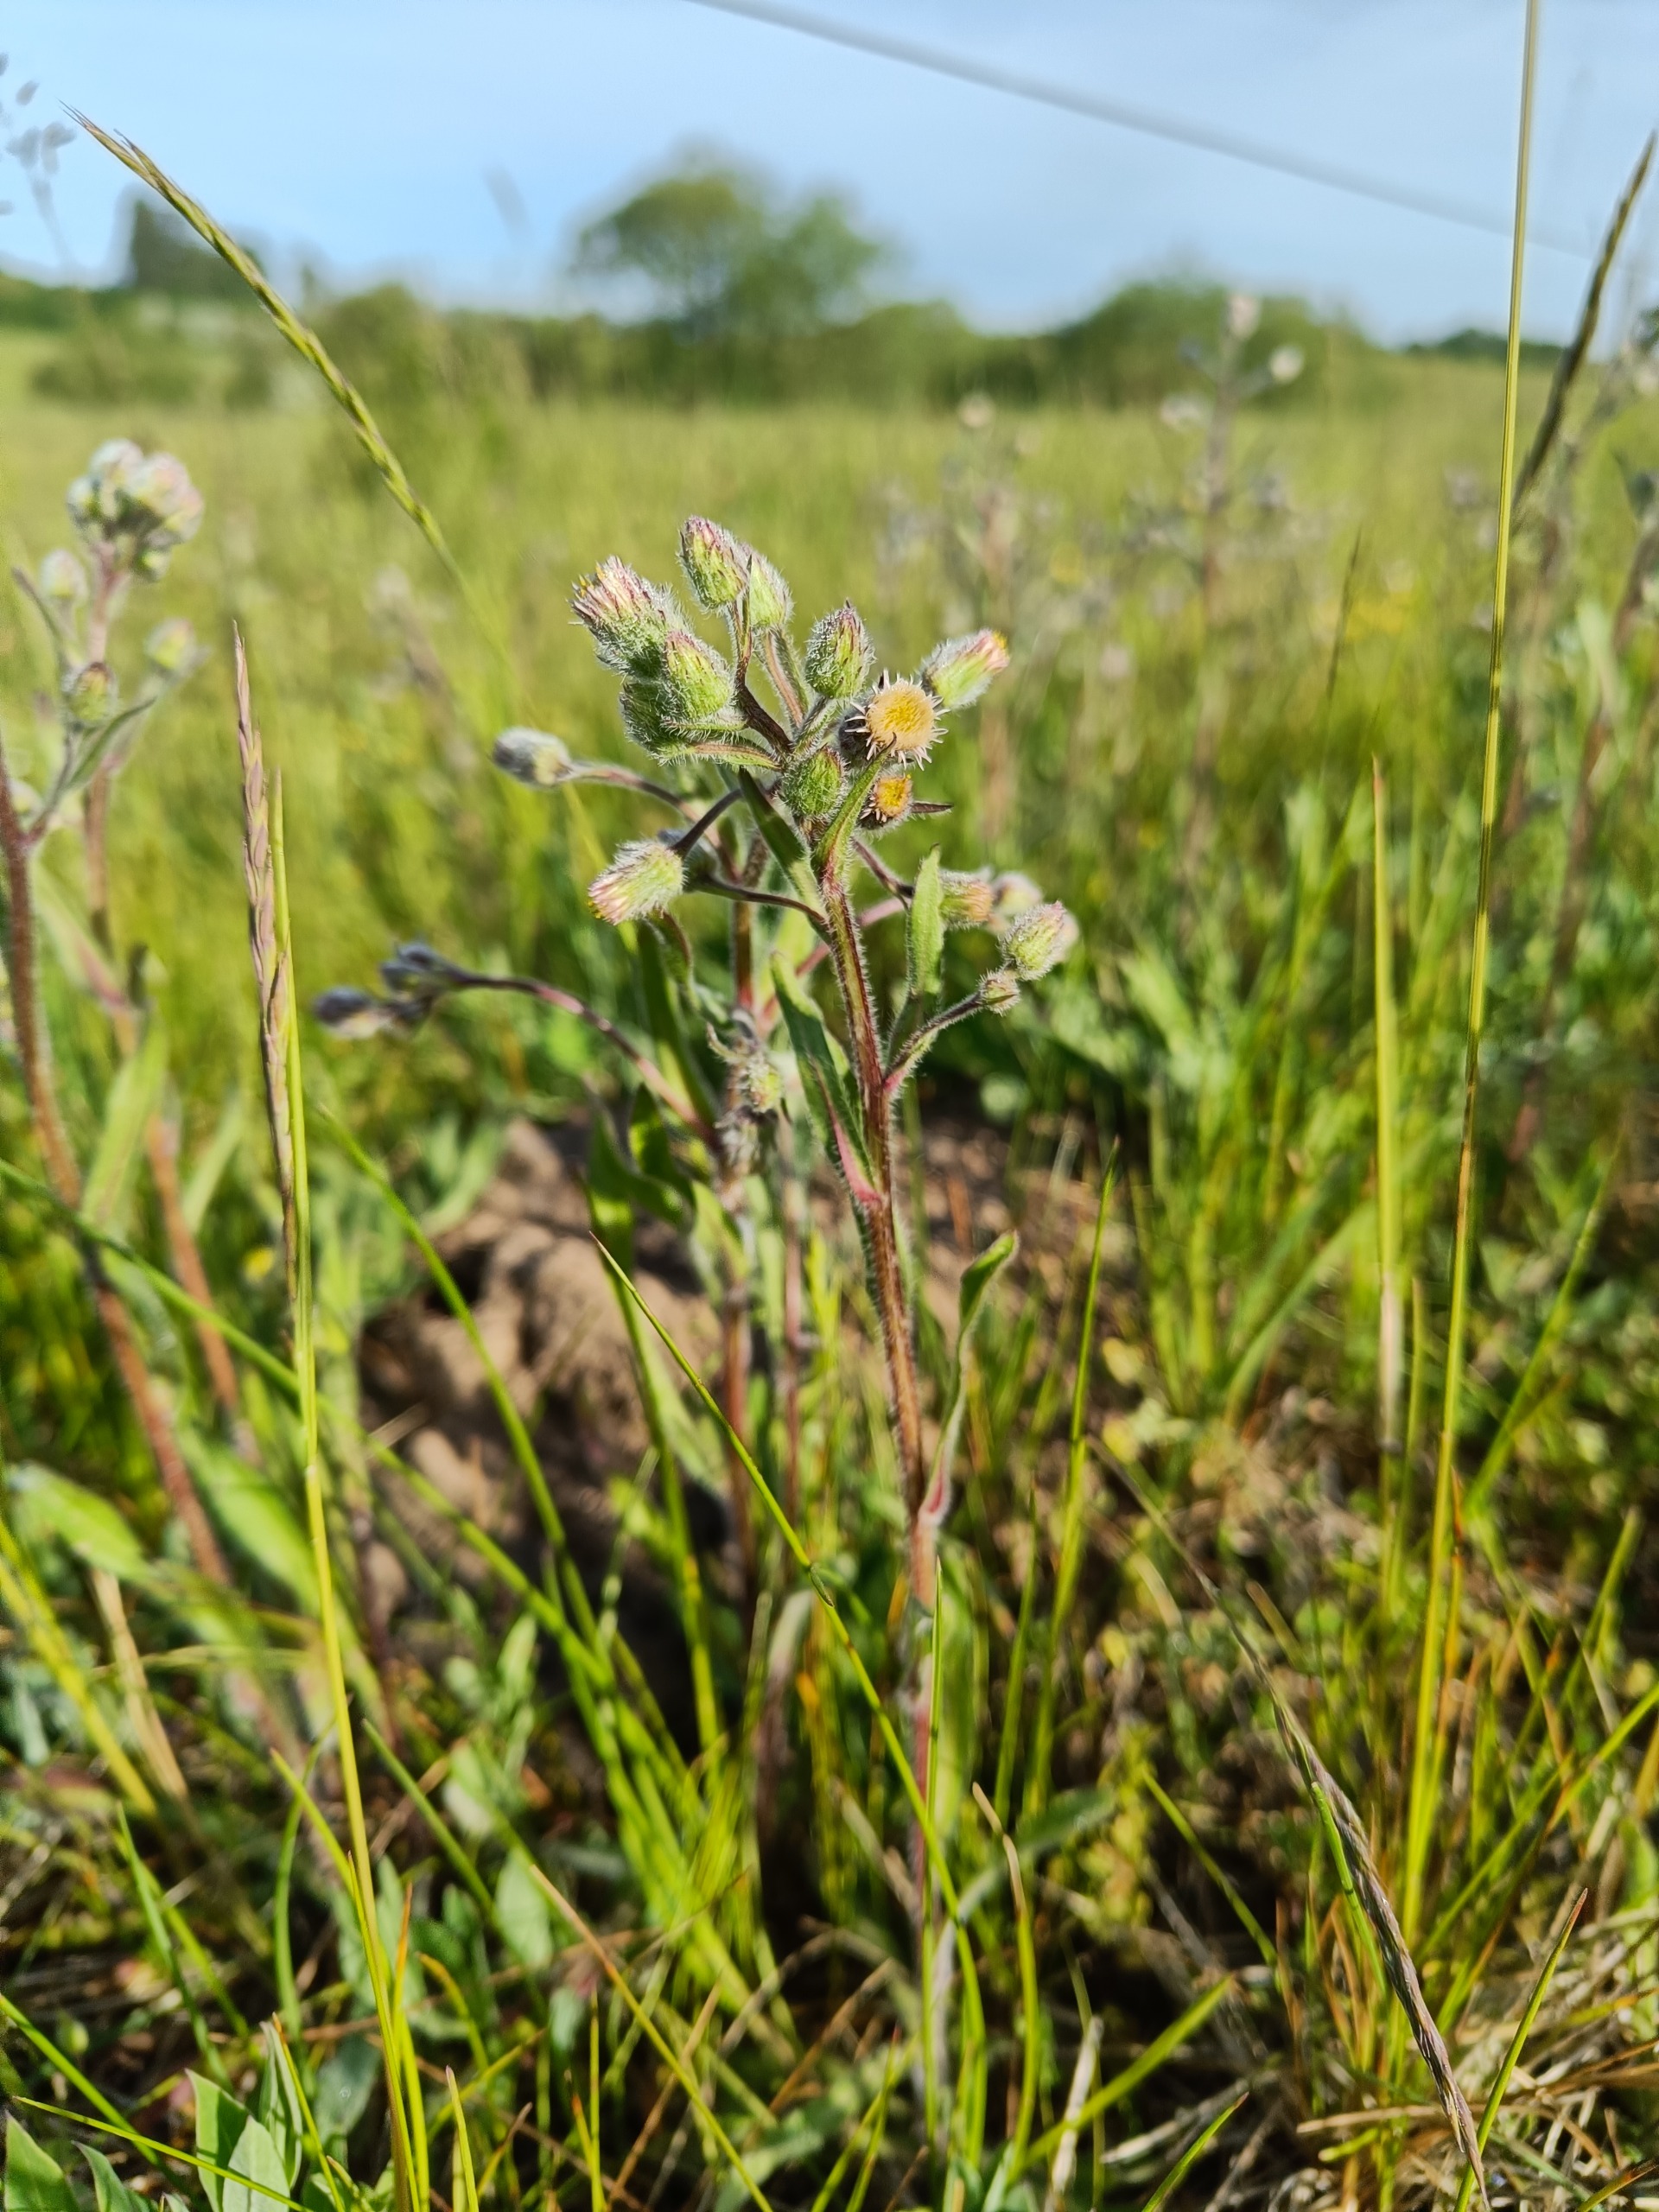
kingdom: Plantae
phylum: Tracheophyta
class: Magnoliopsida
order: Asterales
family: Asteraceae
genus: Erigeron
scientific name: Erigeron acris
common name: Bitter bakkestjerne
